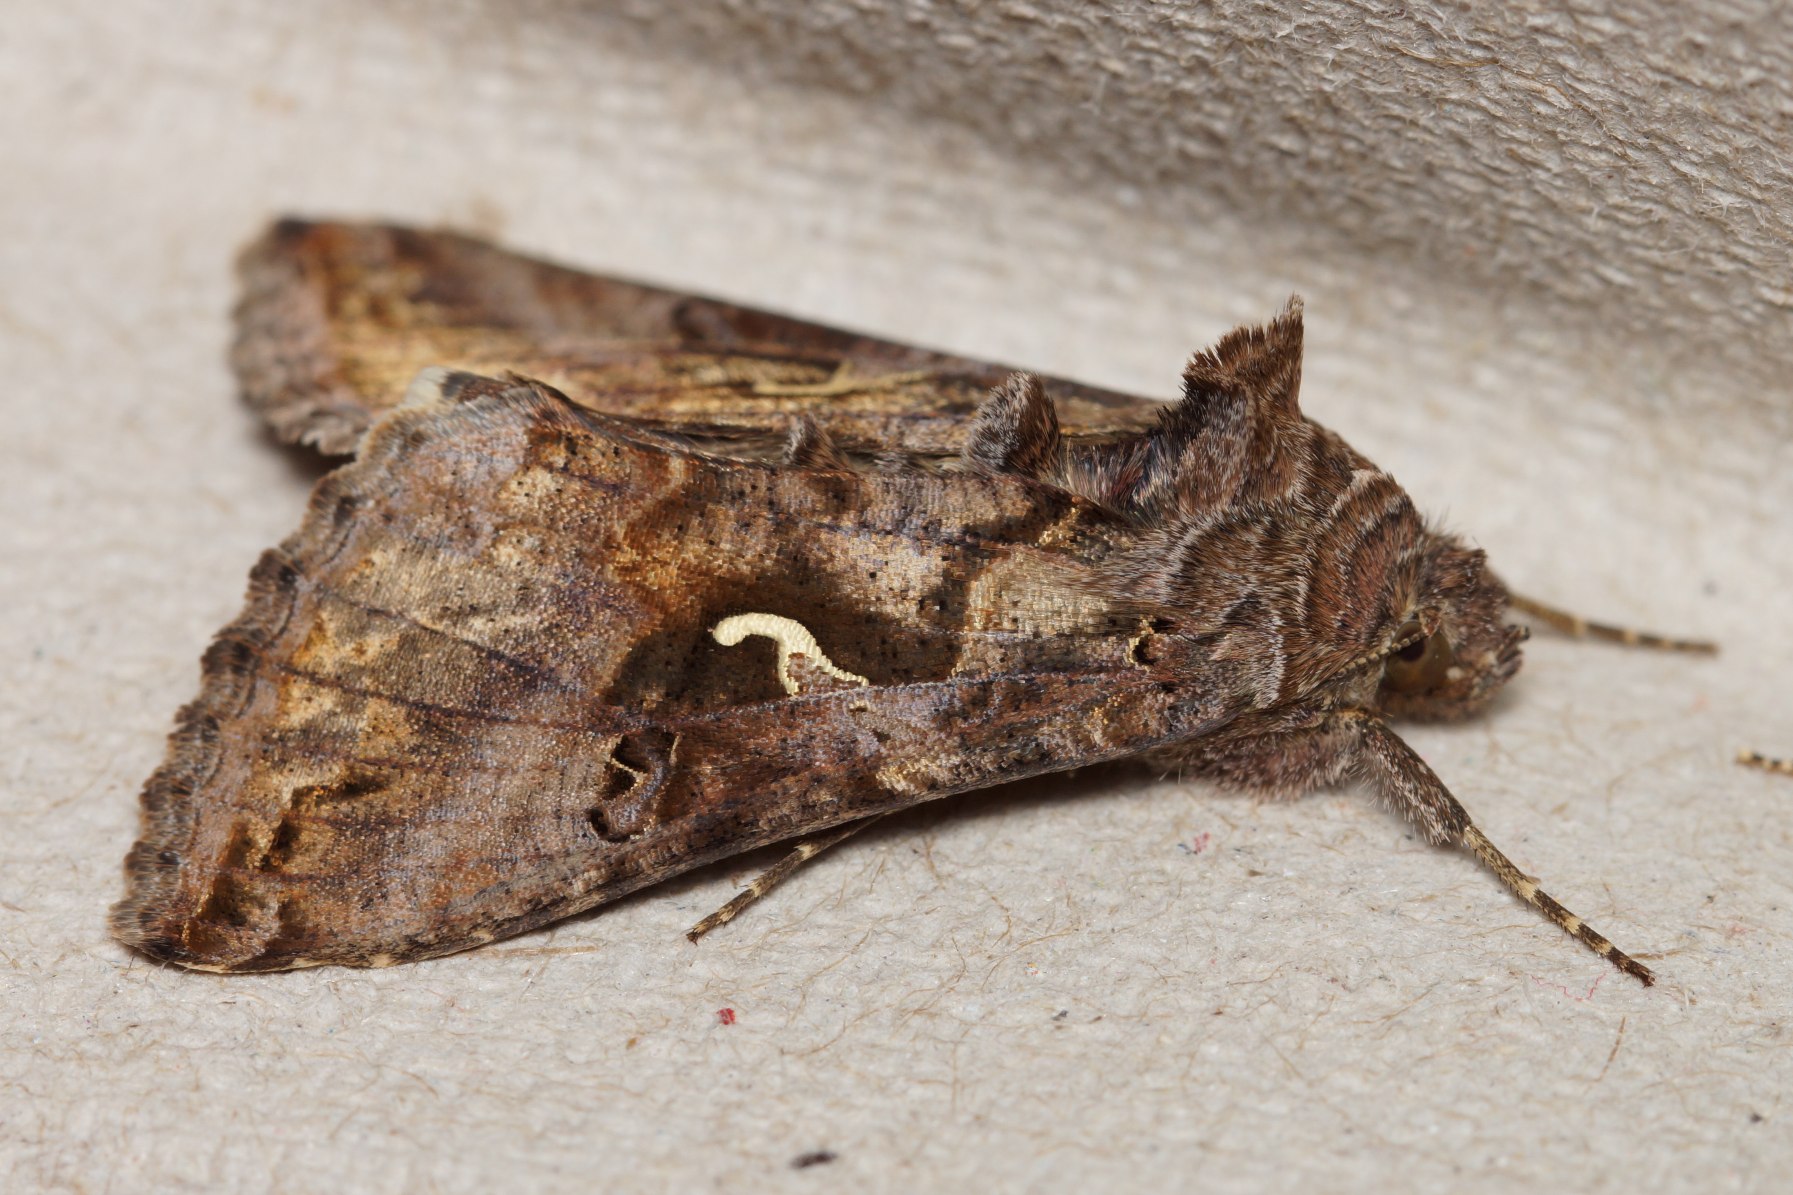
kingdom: Animalia
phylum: Arthropoda
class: Insecta
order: Lepidoptera
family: Noctuidae
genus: Autographa
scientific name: Autographa gamma
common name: Gammaugle
